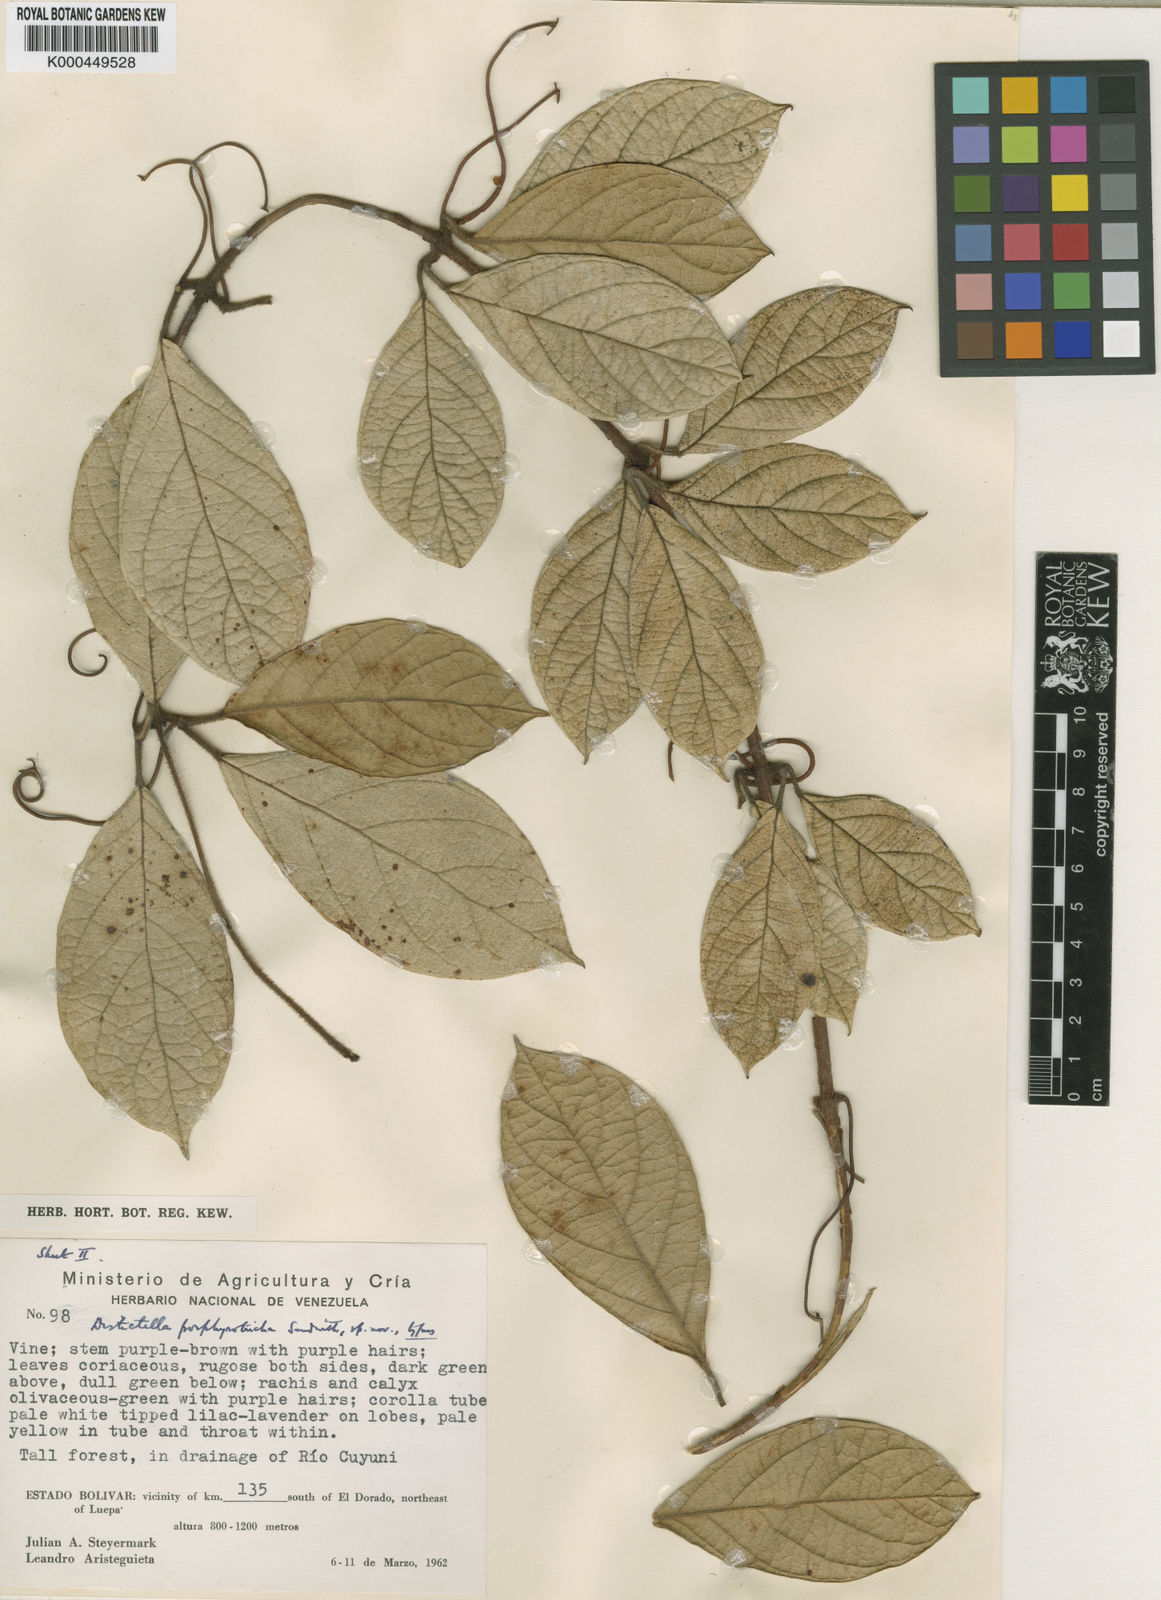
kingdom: Plantae
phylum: Tracheophyta
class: Magnoliopsida
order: Lamiales
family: Bignoniaceae
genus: Amphilophium
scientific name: Amphilophium porphyrotrichum
